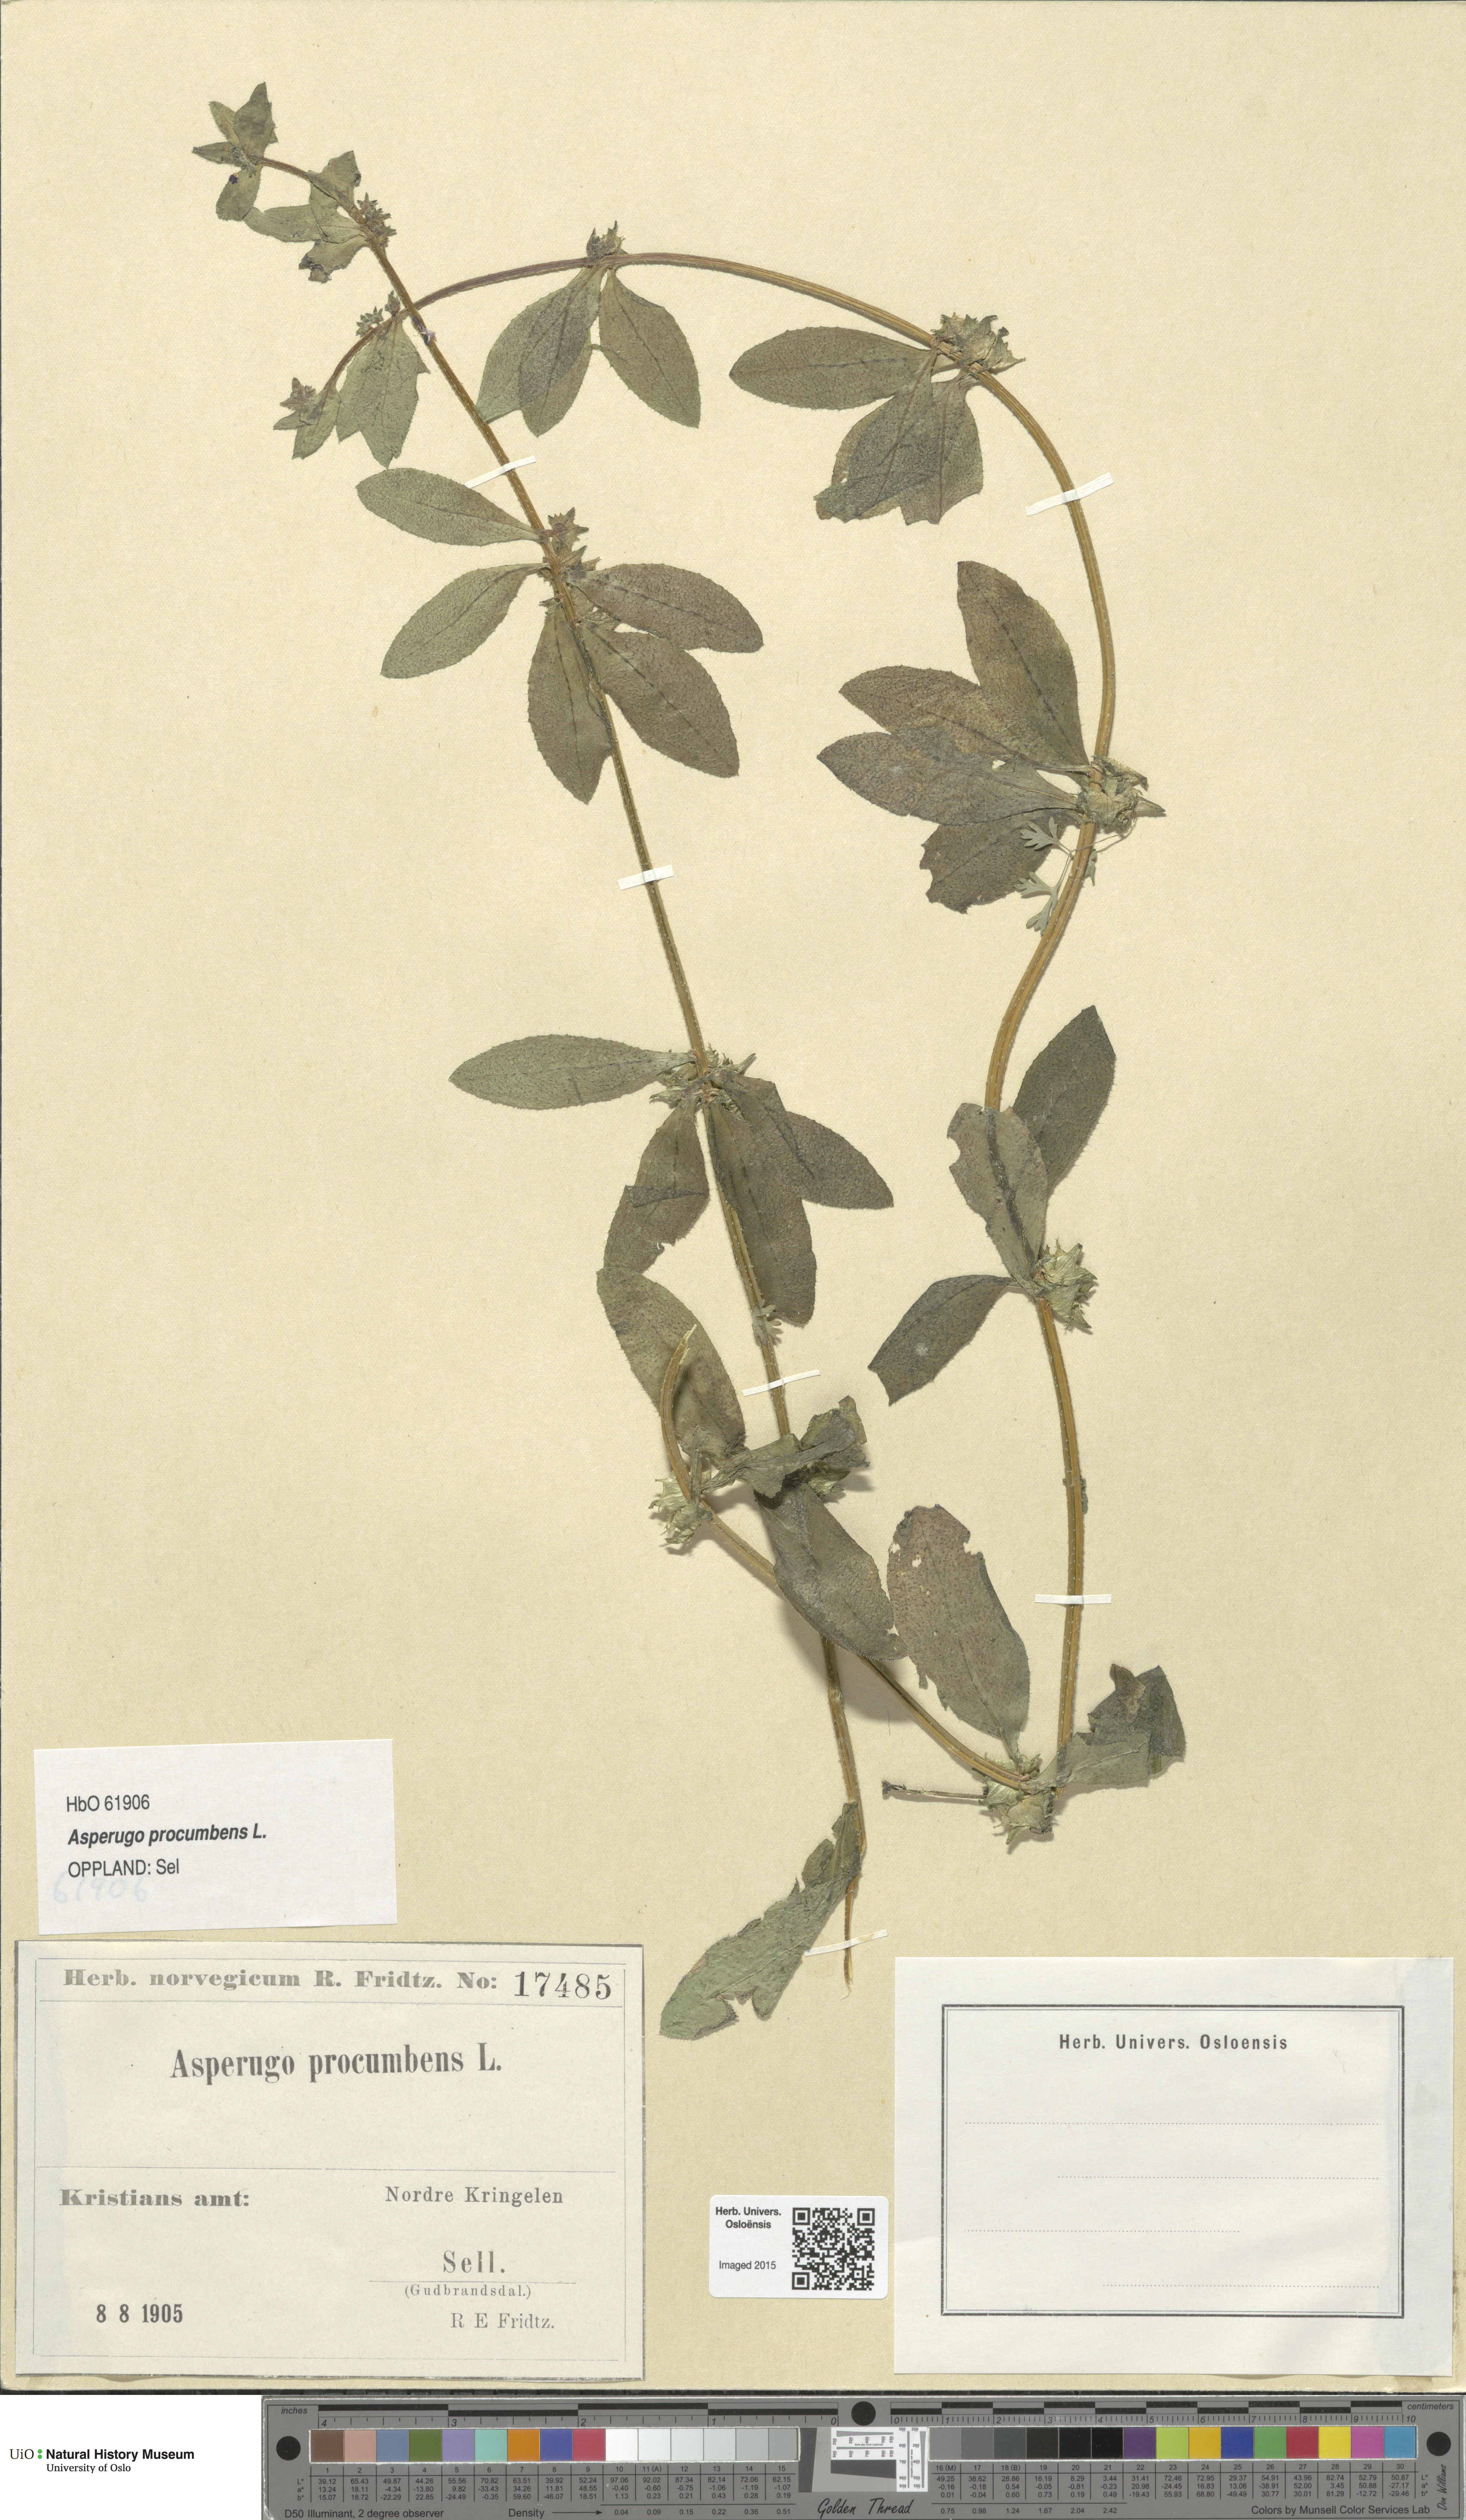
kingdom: Plantae
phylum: Tracheophyta
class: Magnoliopsida
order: Boraginales
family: Boraginaceae
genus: Asperugo
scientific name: Asperugo procumbens
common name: Madwort
